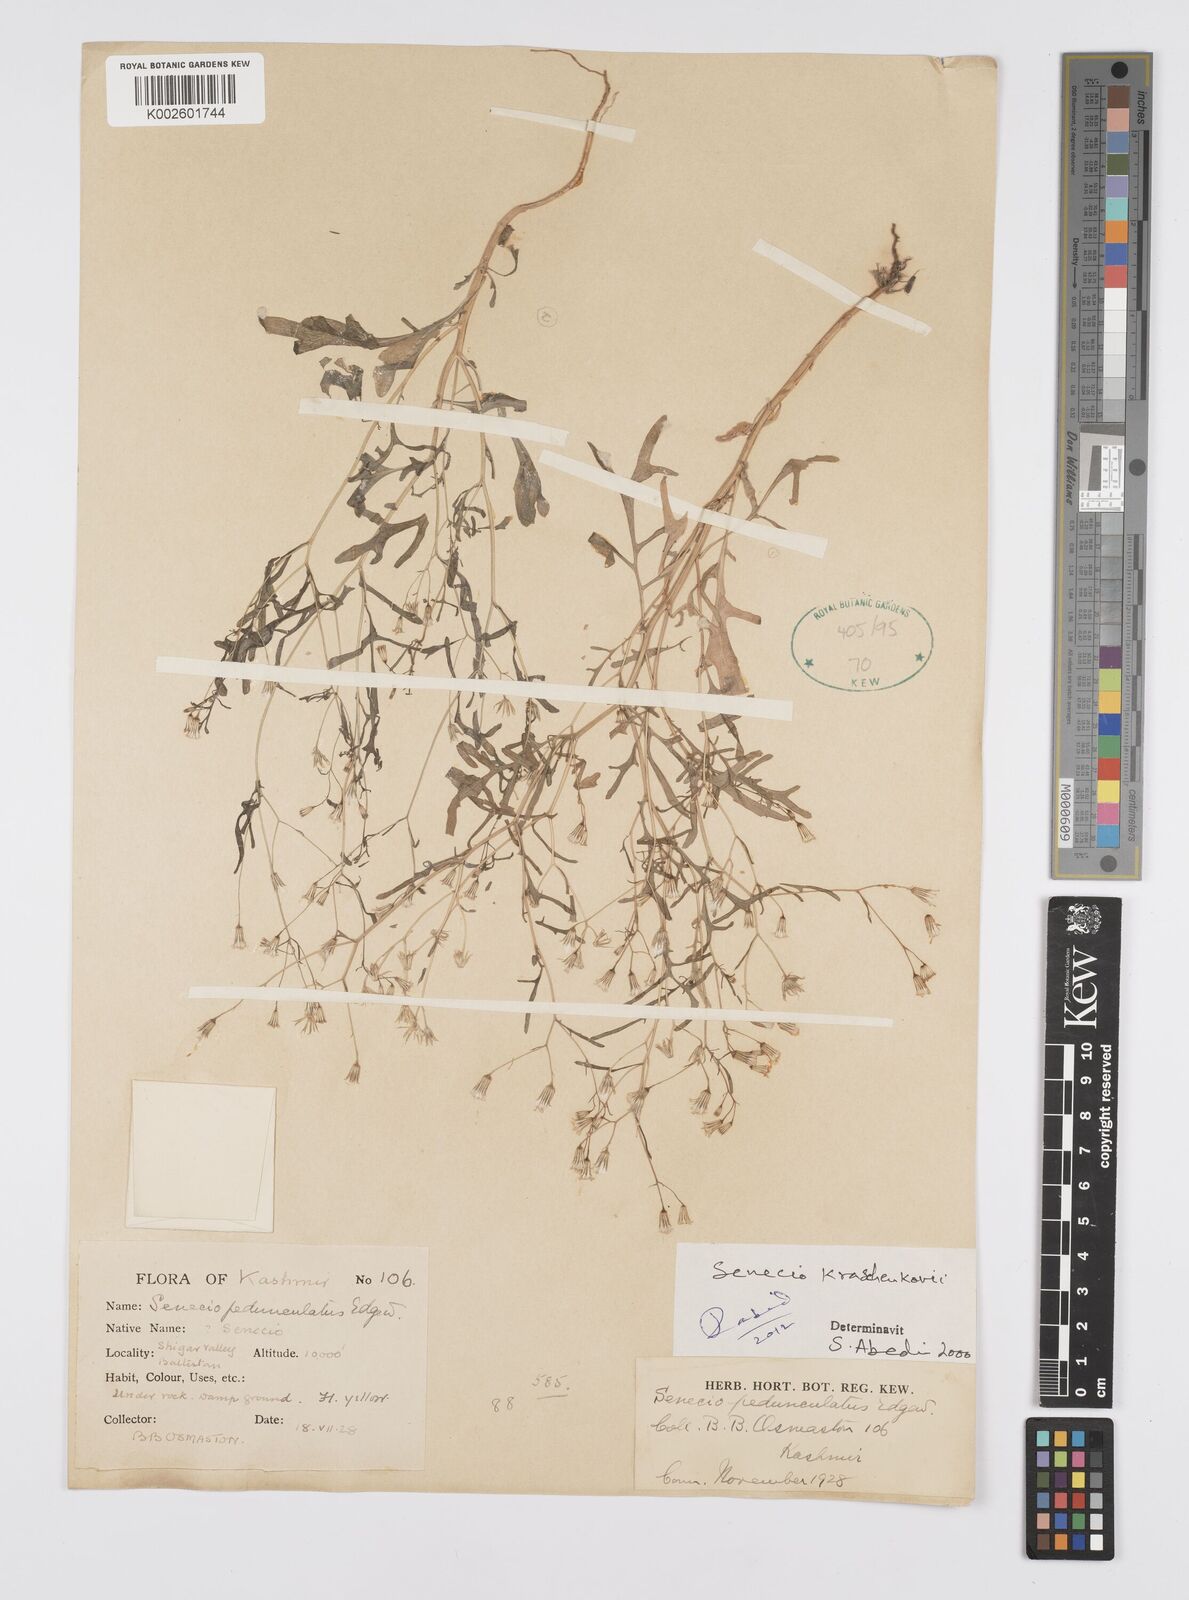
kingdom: Plantae
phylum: Tracheophyta
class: Magnoliopsida
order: Asterales
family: Asteraceae
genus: Senecio
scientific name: Senecio krascheninnikovii
